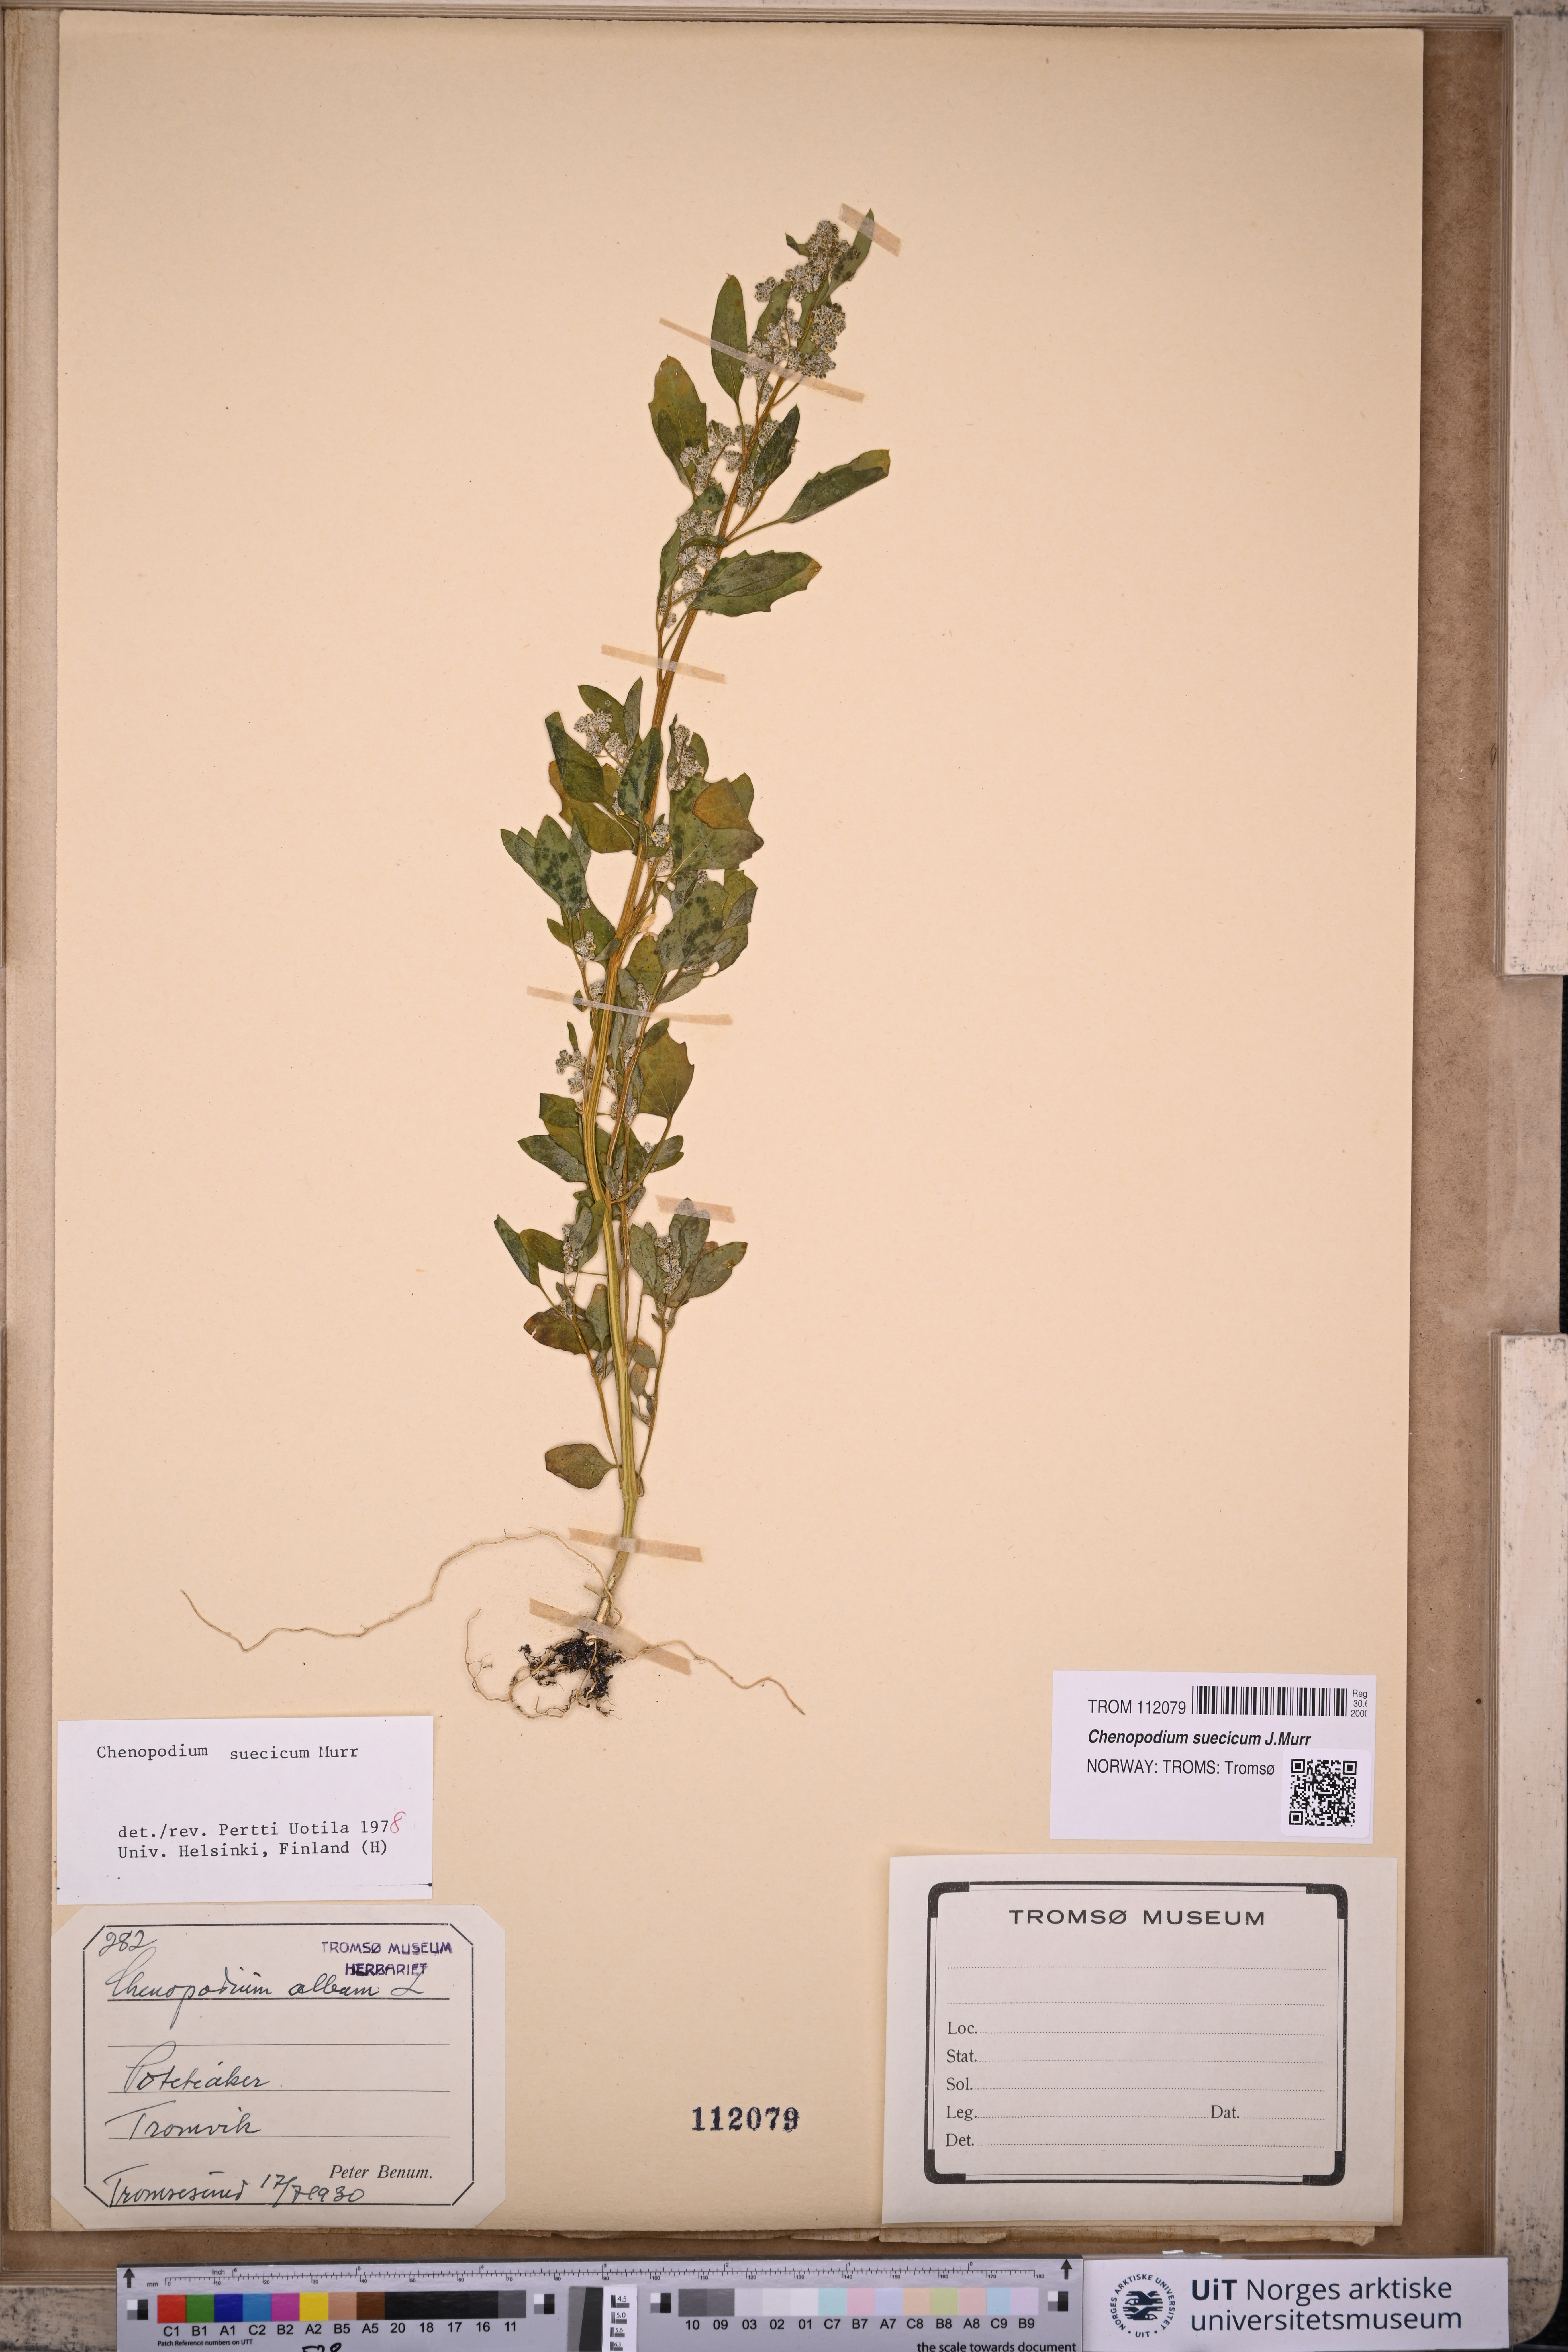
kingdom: Plantae
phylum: Tracheophyta
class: Magnoliopsida
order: Caryophyllales
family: Amaranthaceae
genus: Chenopodium
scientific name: Chenopodium suecicum
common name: Swedish goosefoot
